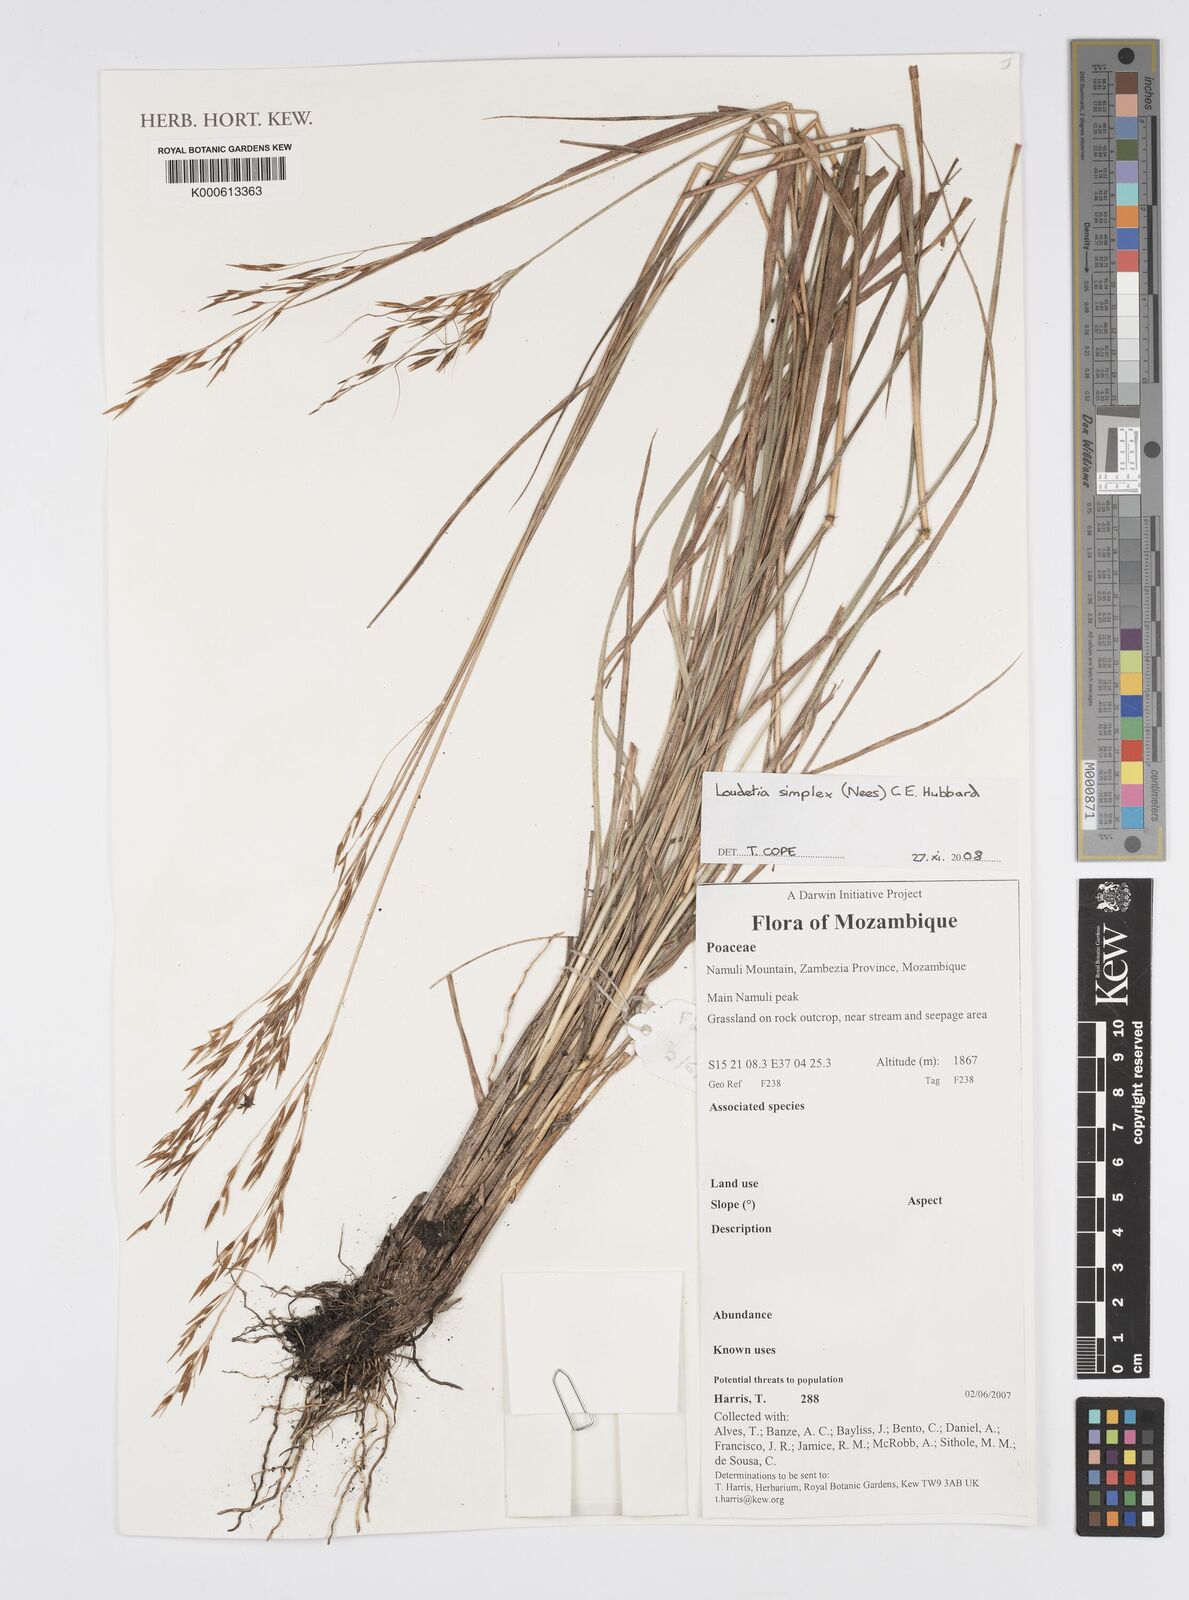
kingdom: Plantae
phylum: Tracheophyta
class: Liliopsida
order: Poales
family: Poaceae
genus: Loudetia
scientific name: Loudetia simplex
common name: Common russet grass
